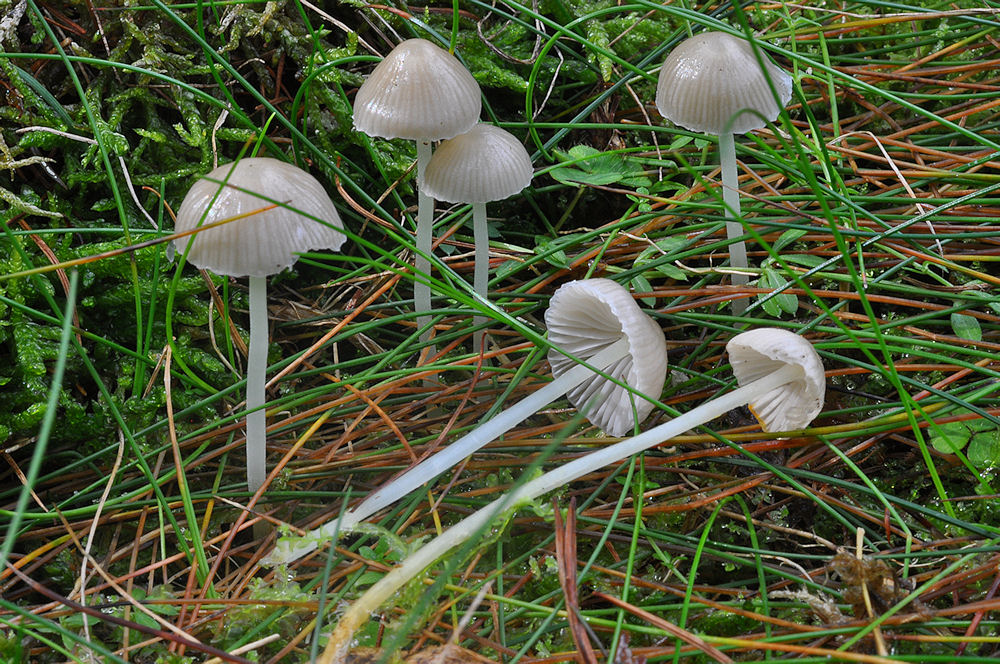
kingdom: Fungi
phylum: Basidiomycota
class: Agaricomycetes
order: Agaricales
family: Mycenaceae
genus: Mycena
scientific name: Mycena vulgaris
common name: klæbrig huesvamp
